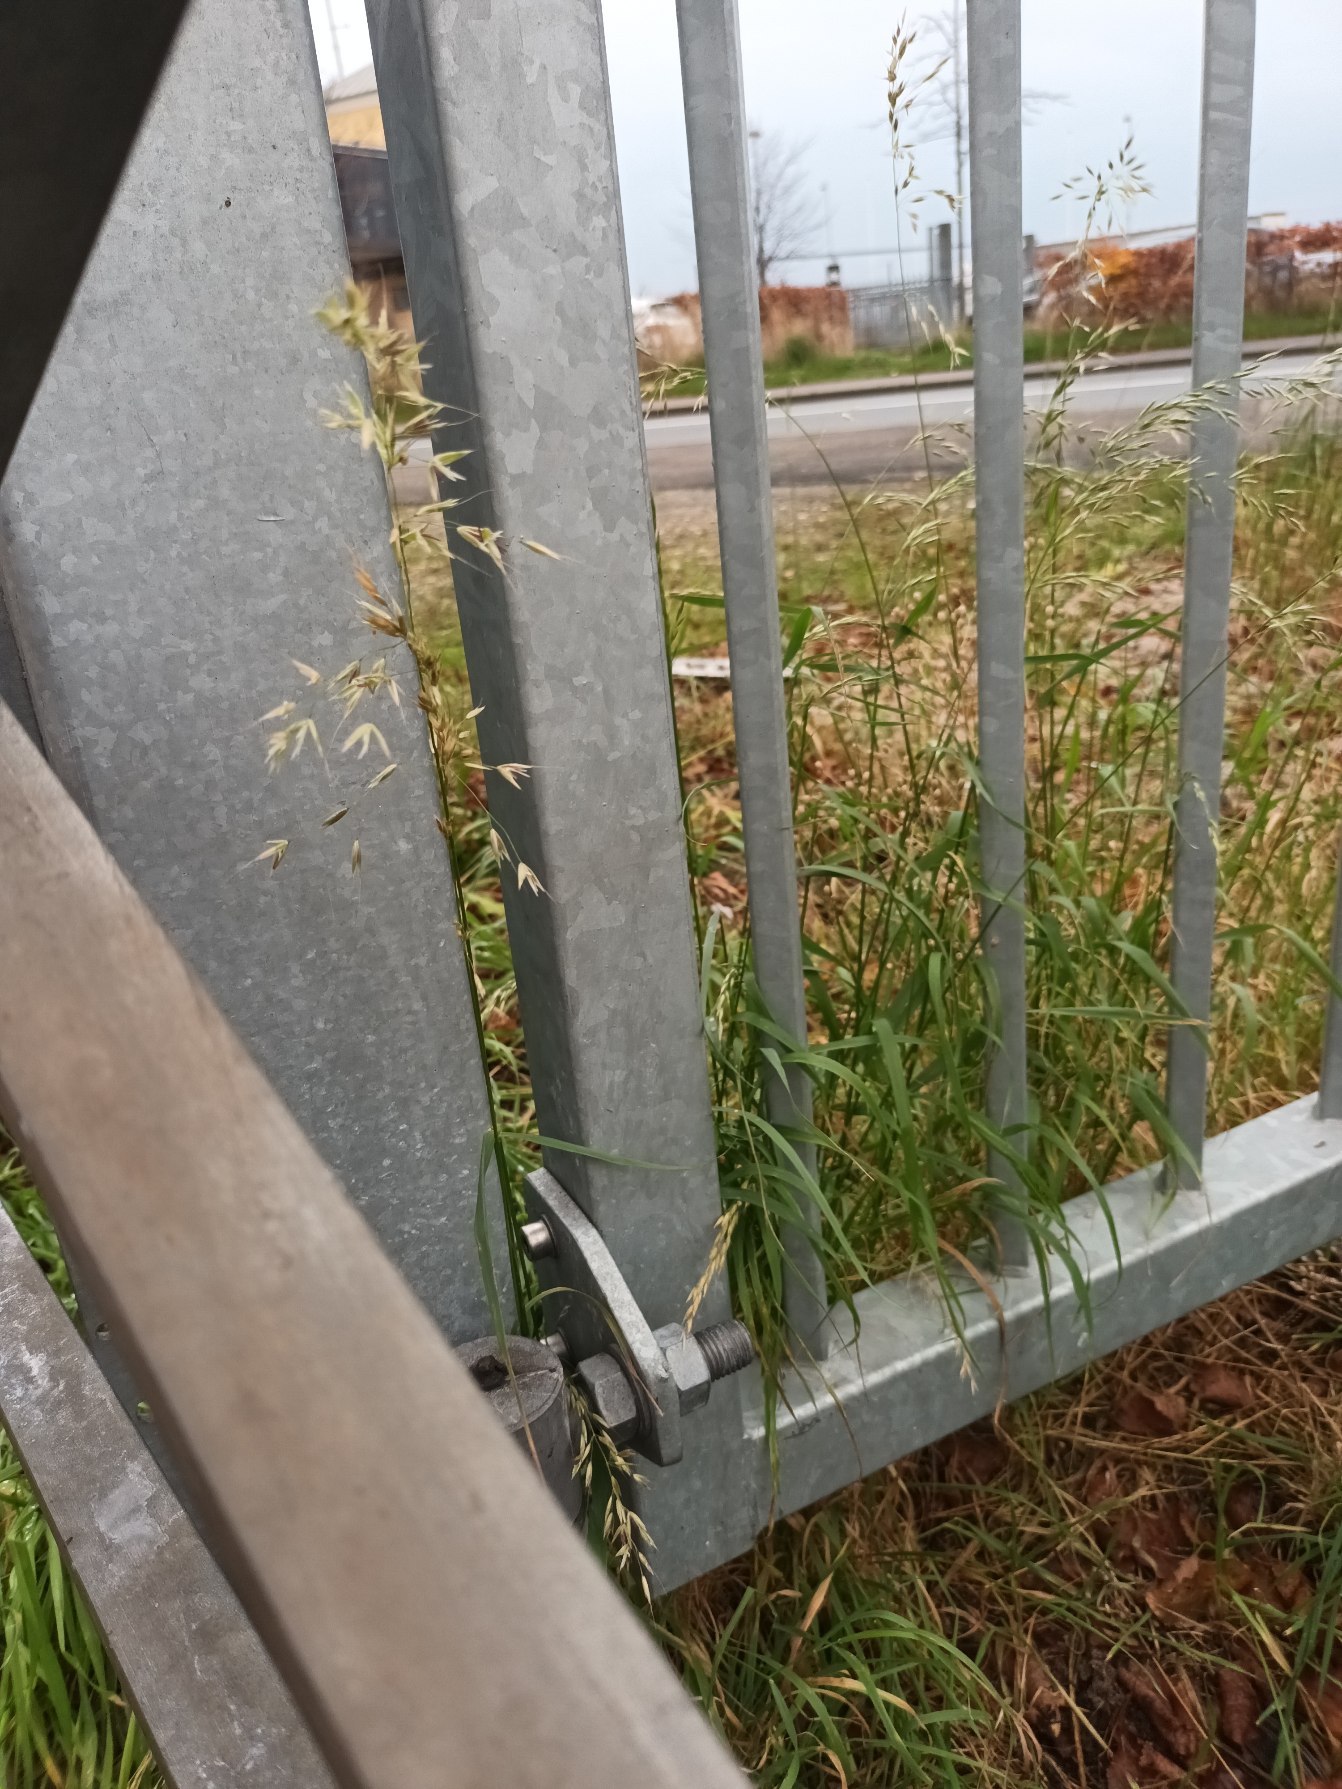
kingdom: Plantae
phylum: Tracheophyta
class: Liliopsida
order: Poales
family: Poaceae
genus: Arrhenatherum
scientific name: Arrhenatherum elatius
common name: Draphavre
